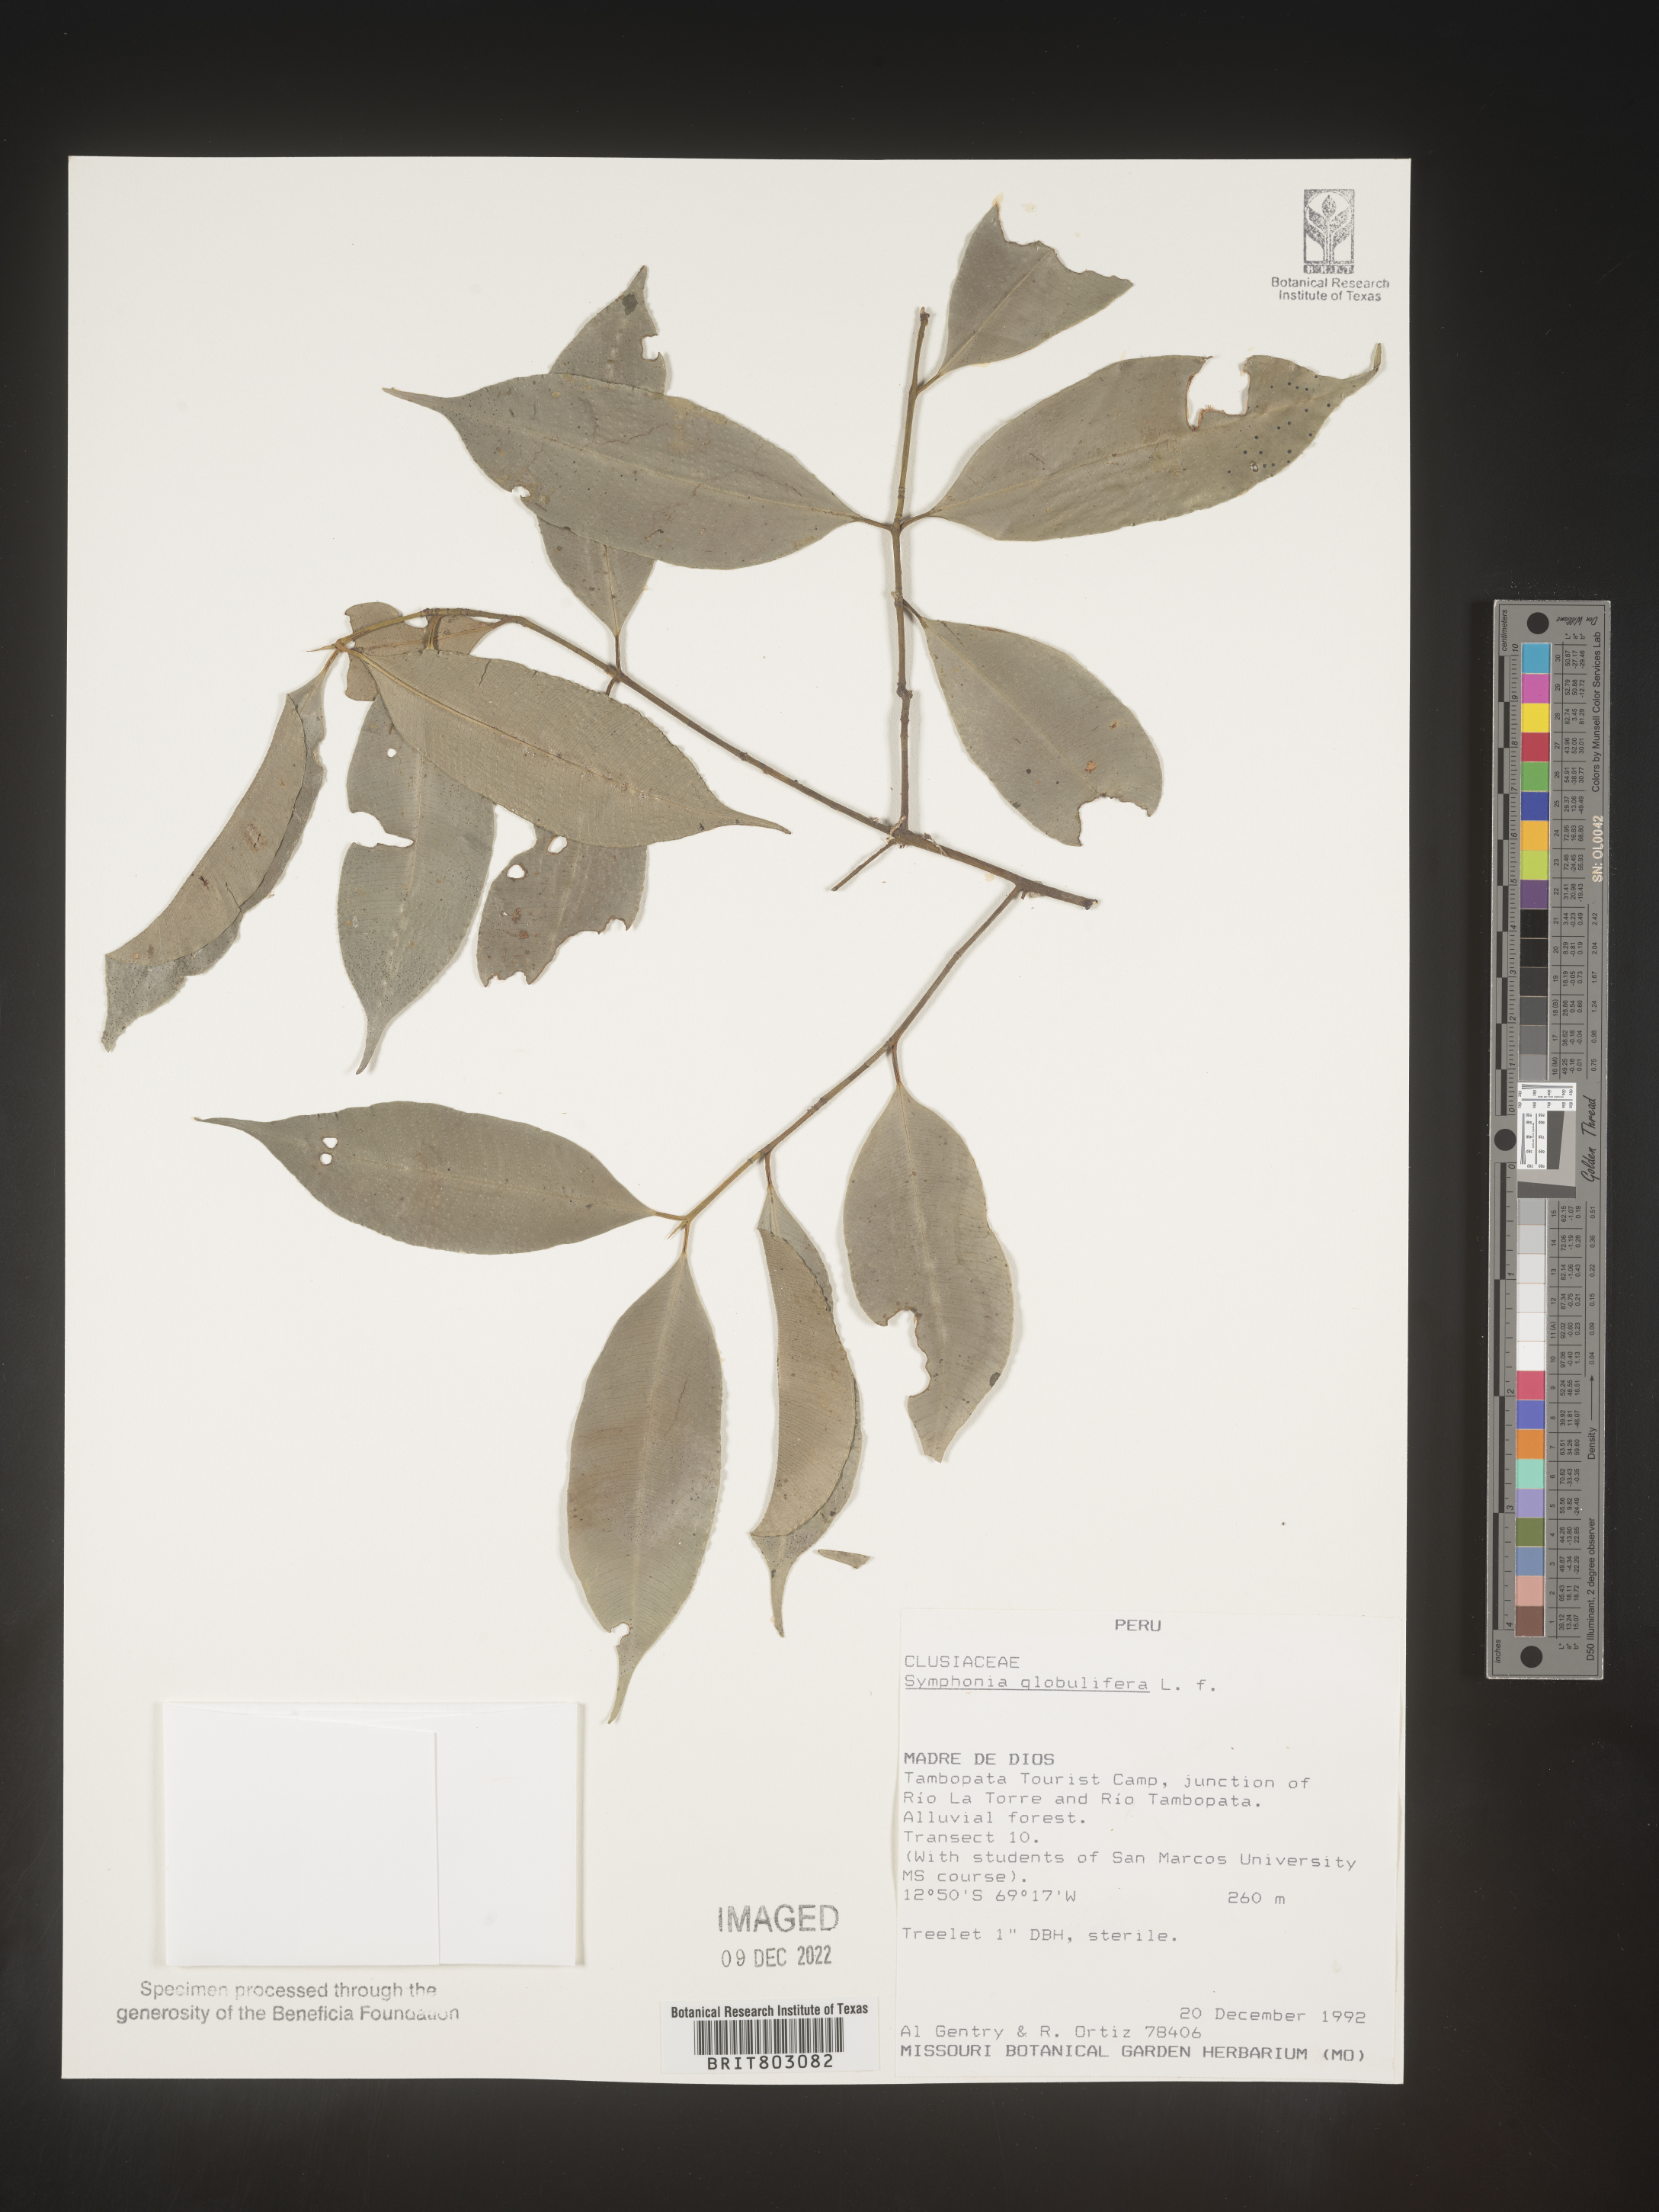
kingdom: Plantae
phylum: Tracheophyta
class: Magnoliopsida
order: Malpighiales
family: Clusiaceae
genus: Symphonia
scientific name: Symphonia
